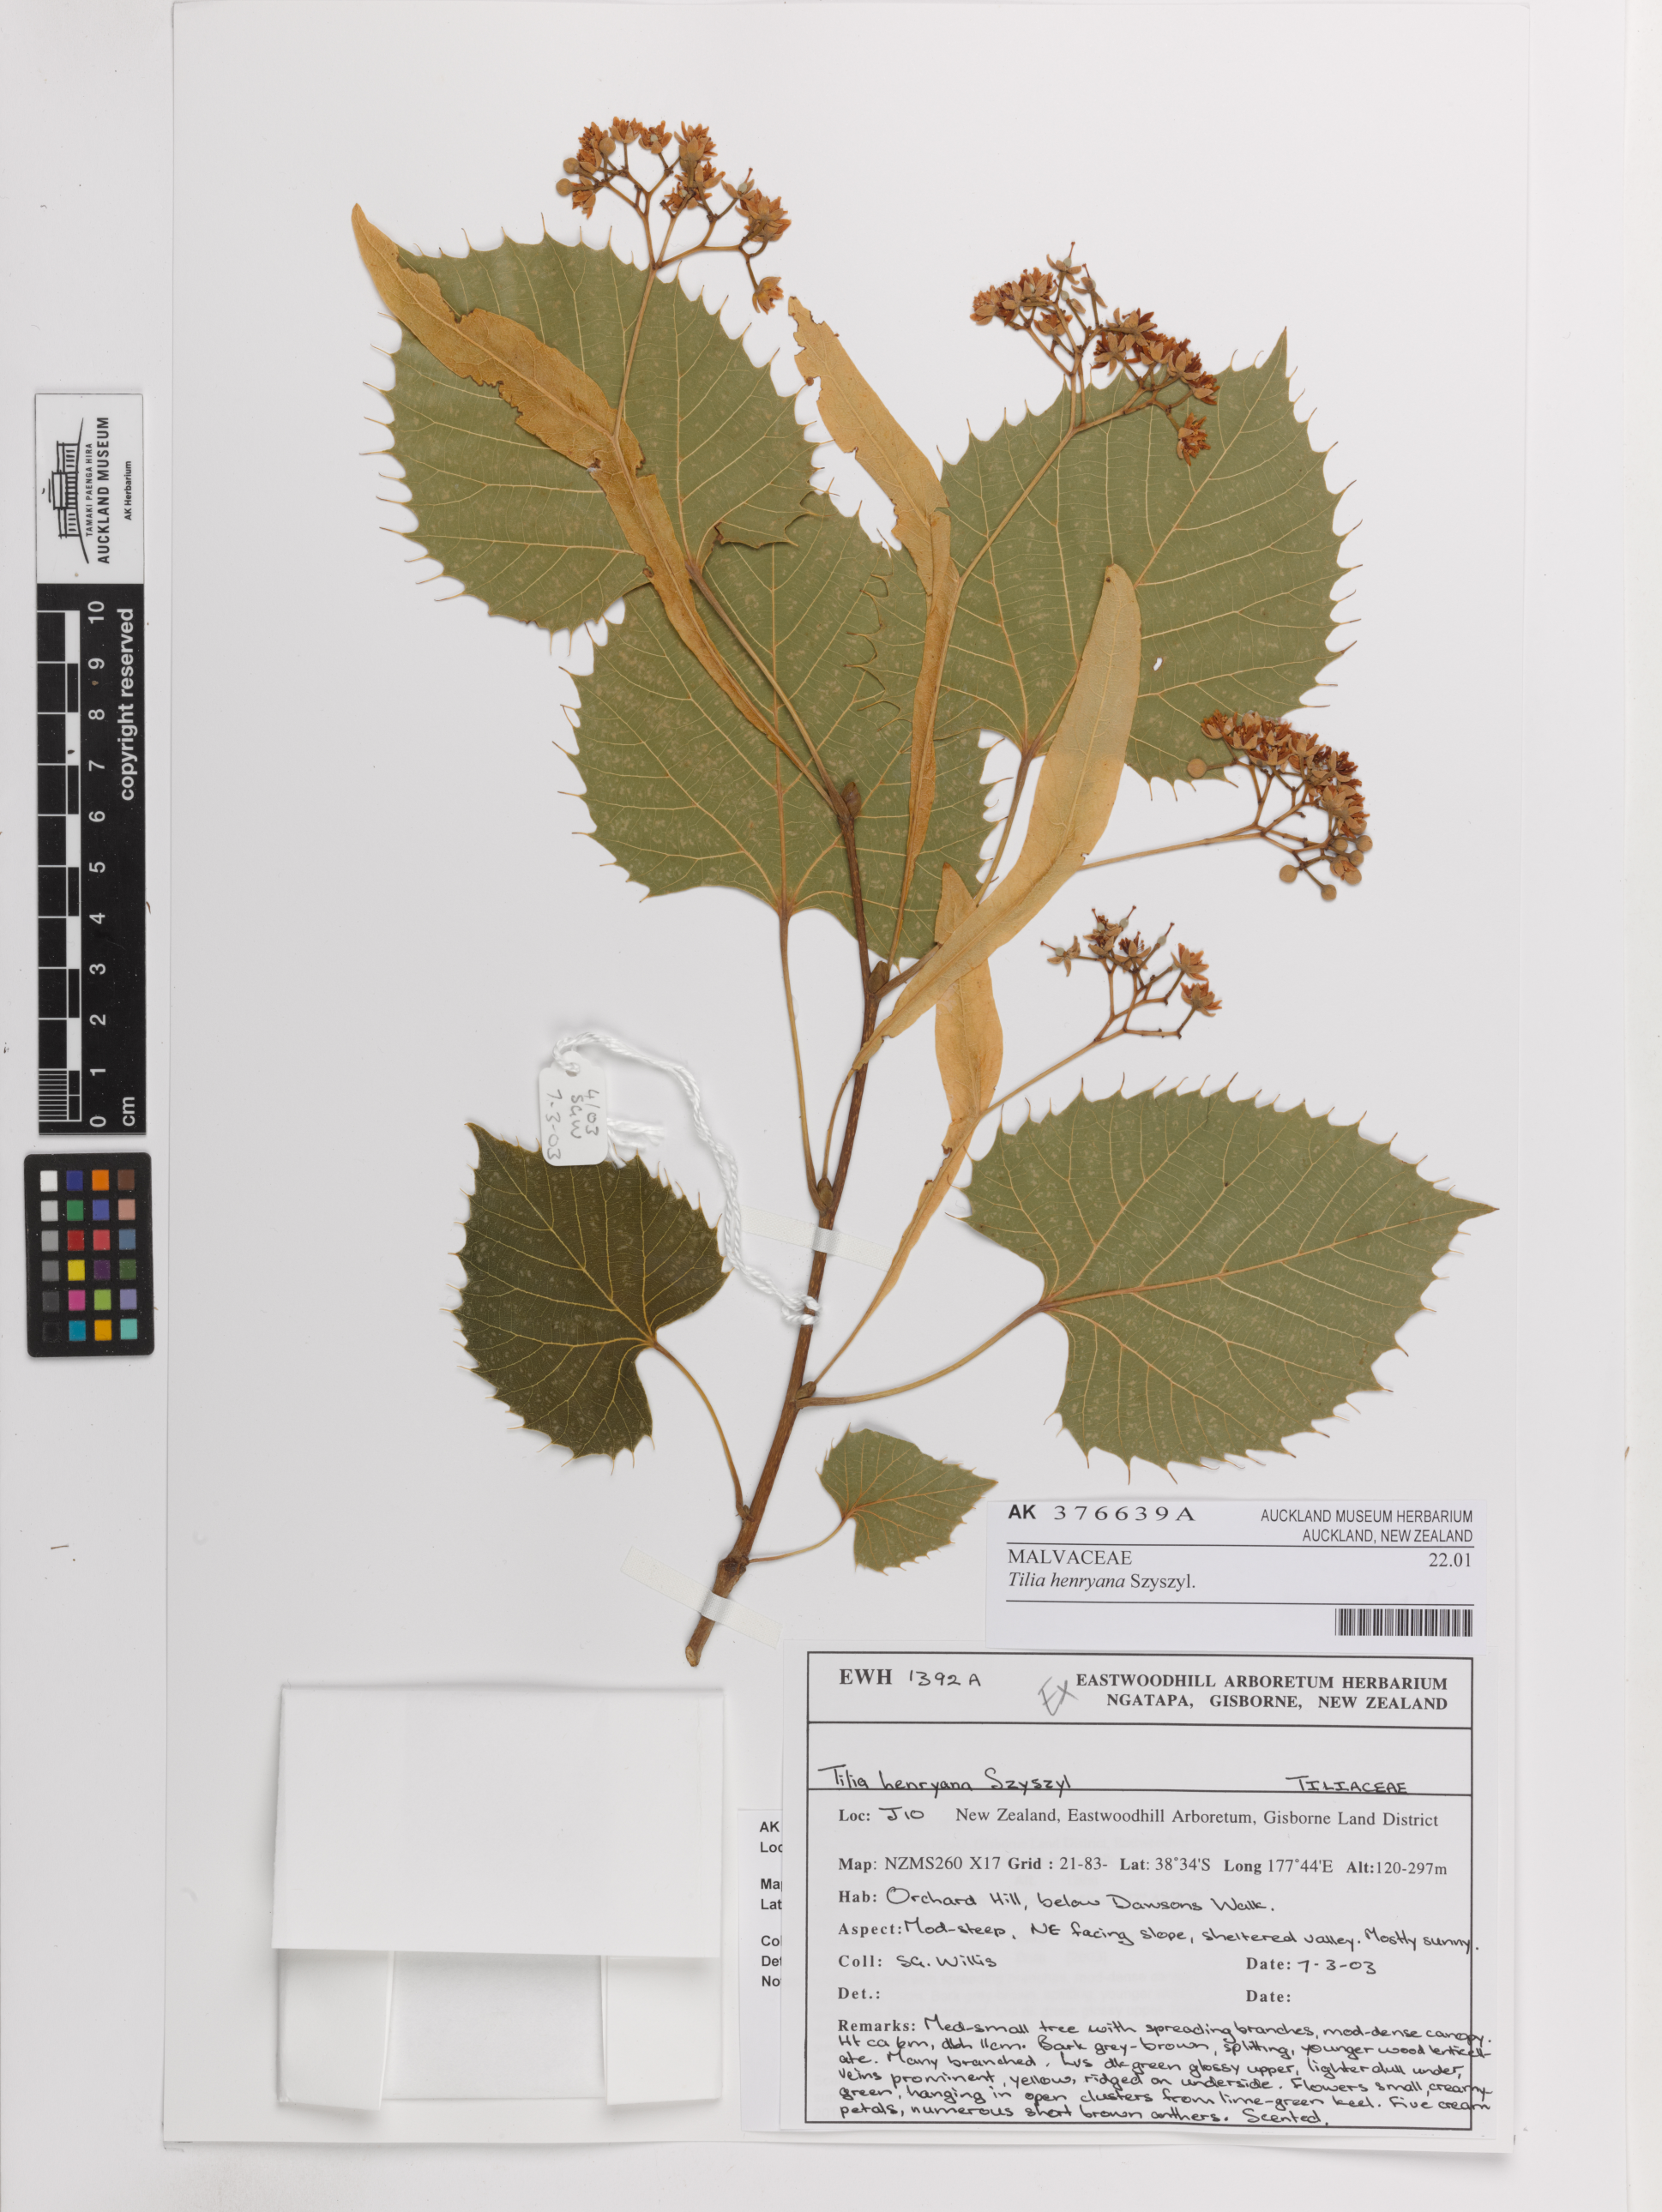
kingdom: Plantae
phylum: Tracheophyta
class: Magnoliopsida
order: Malvales
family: Malvaceae
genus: Tilia
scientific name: Tilia henryana
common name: Henry's lime
